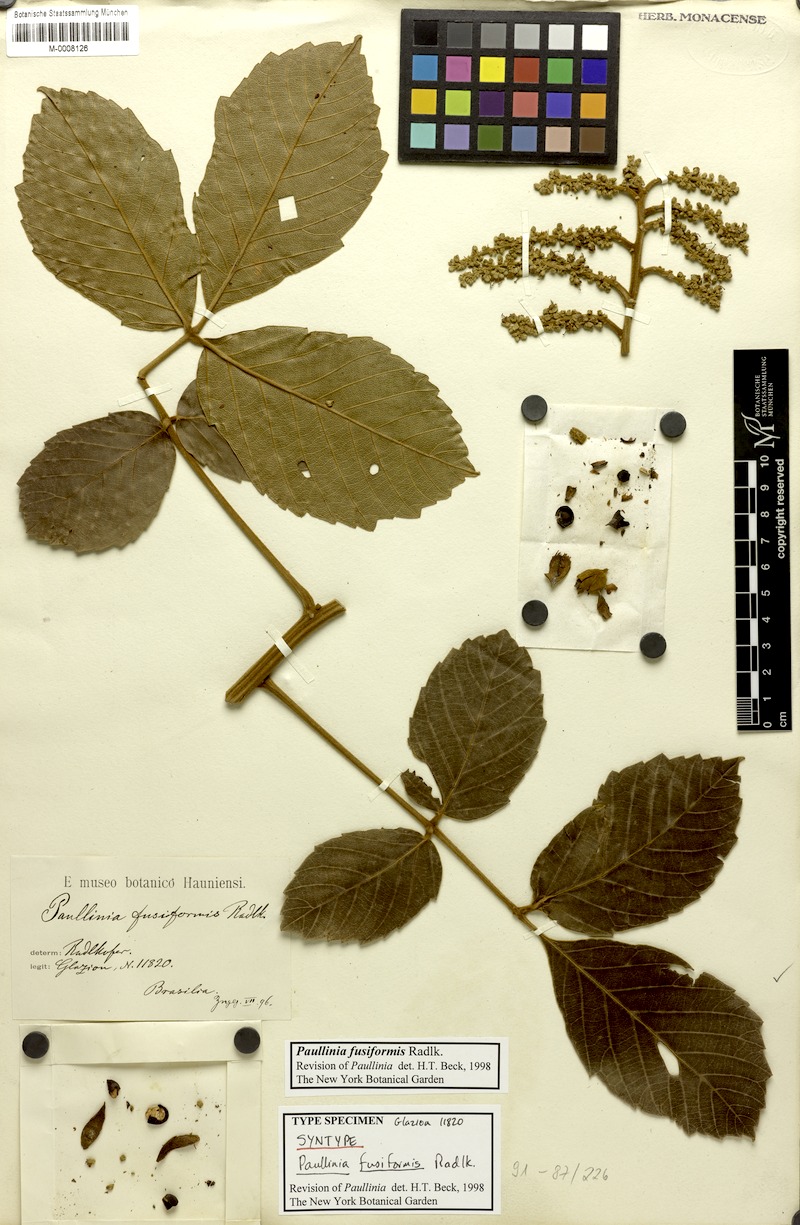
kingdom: Plantae
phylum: Tracheophyta
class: Magnoliopsida
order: Sapindales
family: Sapindaceae
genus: Paullinia
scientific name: Paullinia fusiformis
